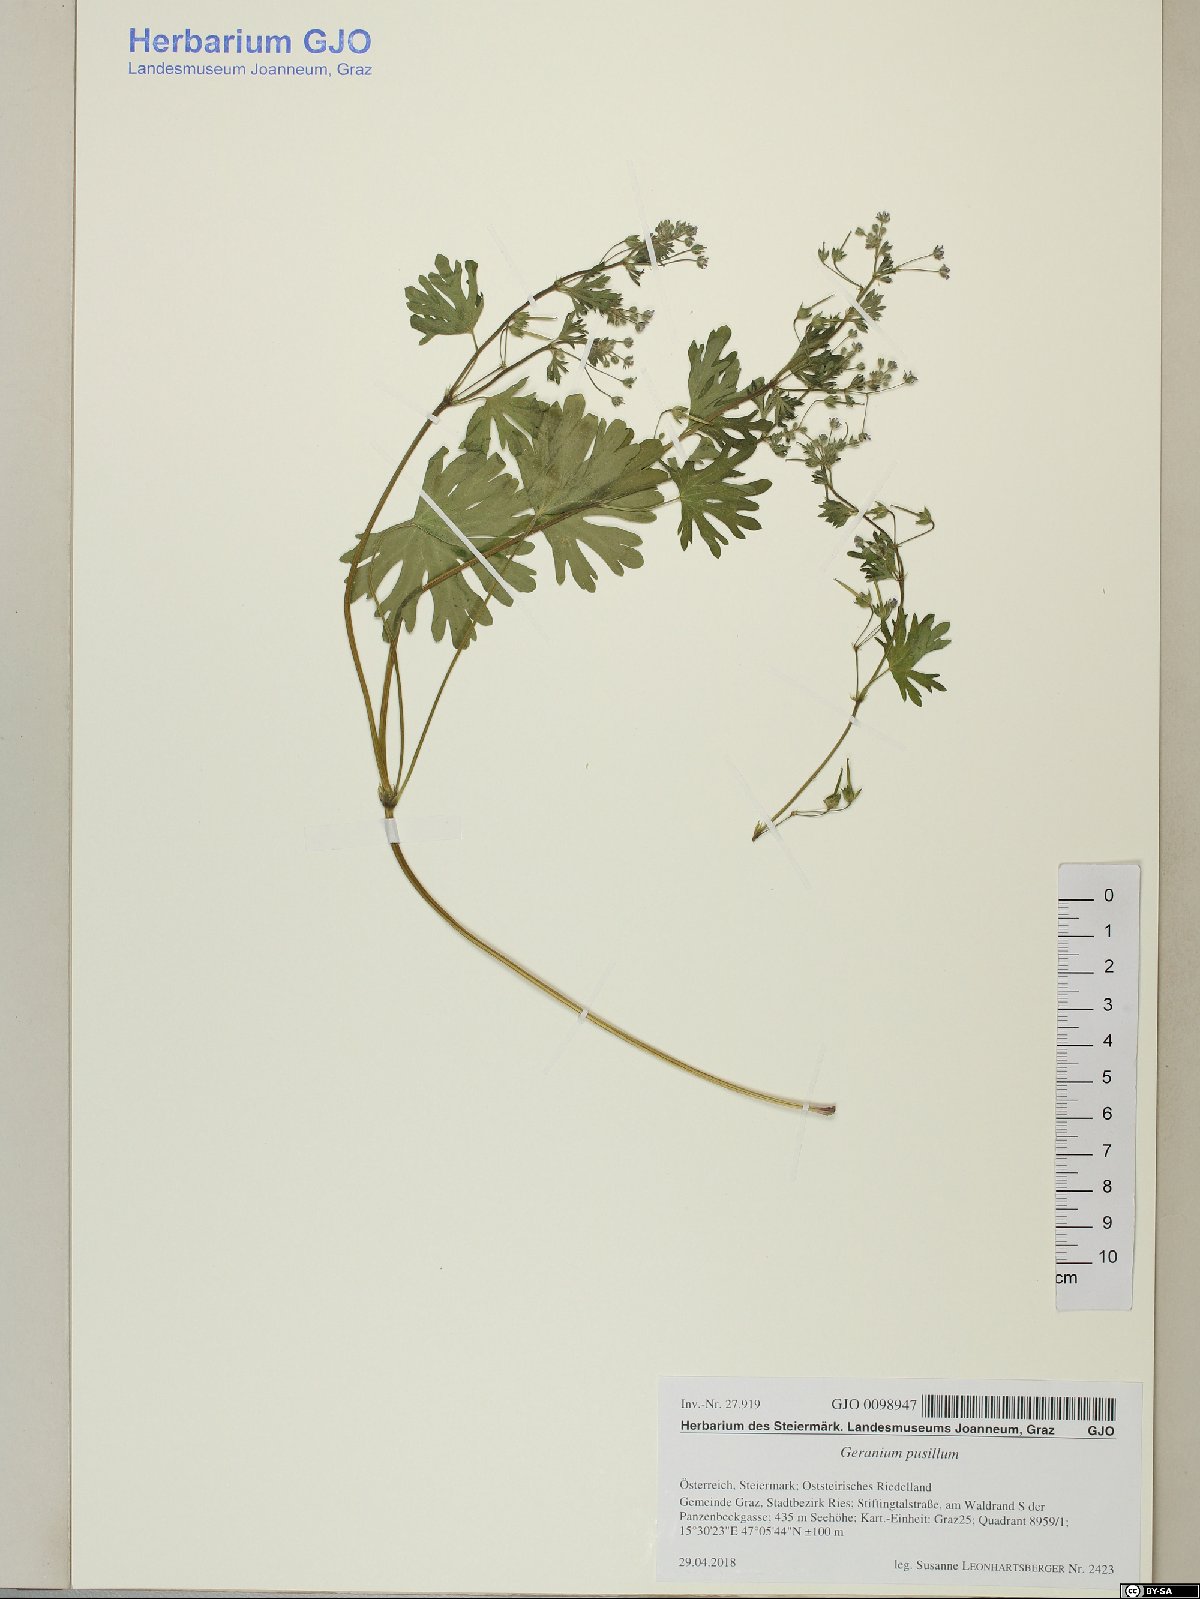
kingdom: Plantae
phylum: Tracheophyta
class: Magnoliopsida
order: Geraniales
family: Geraniaceae
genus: Geranium
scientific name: Geranium pusillum
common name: Small geranium
